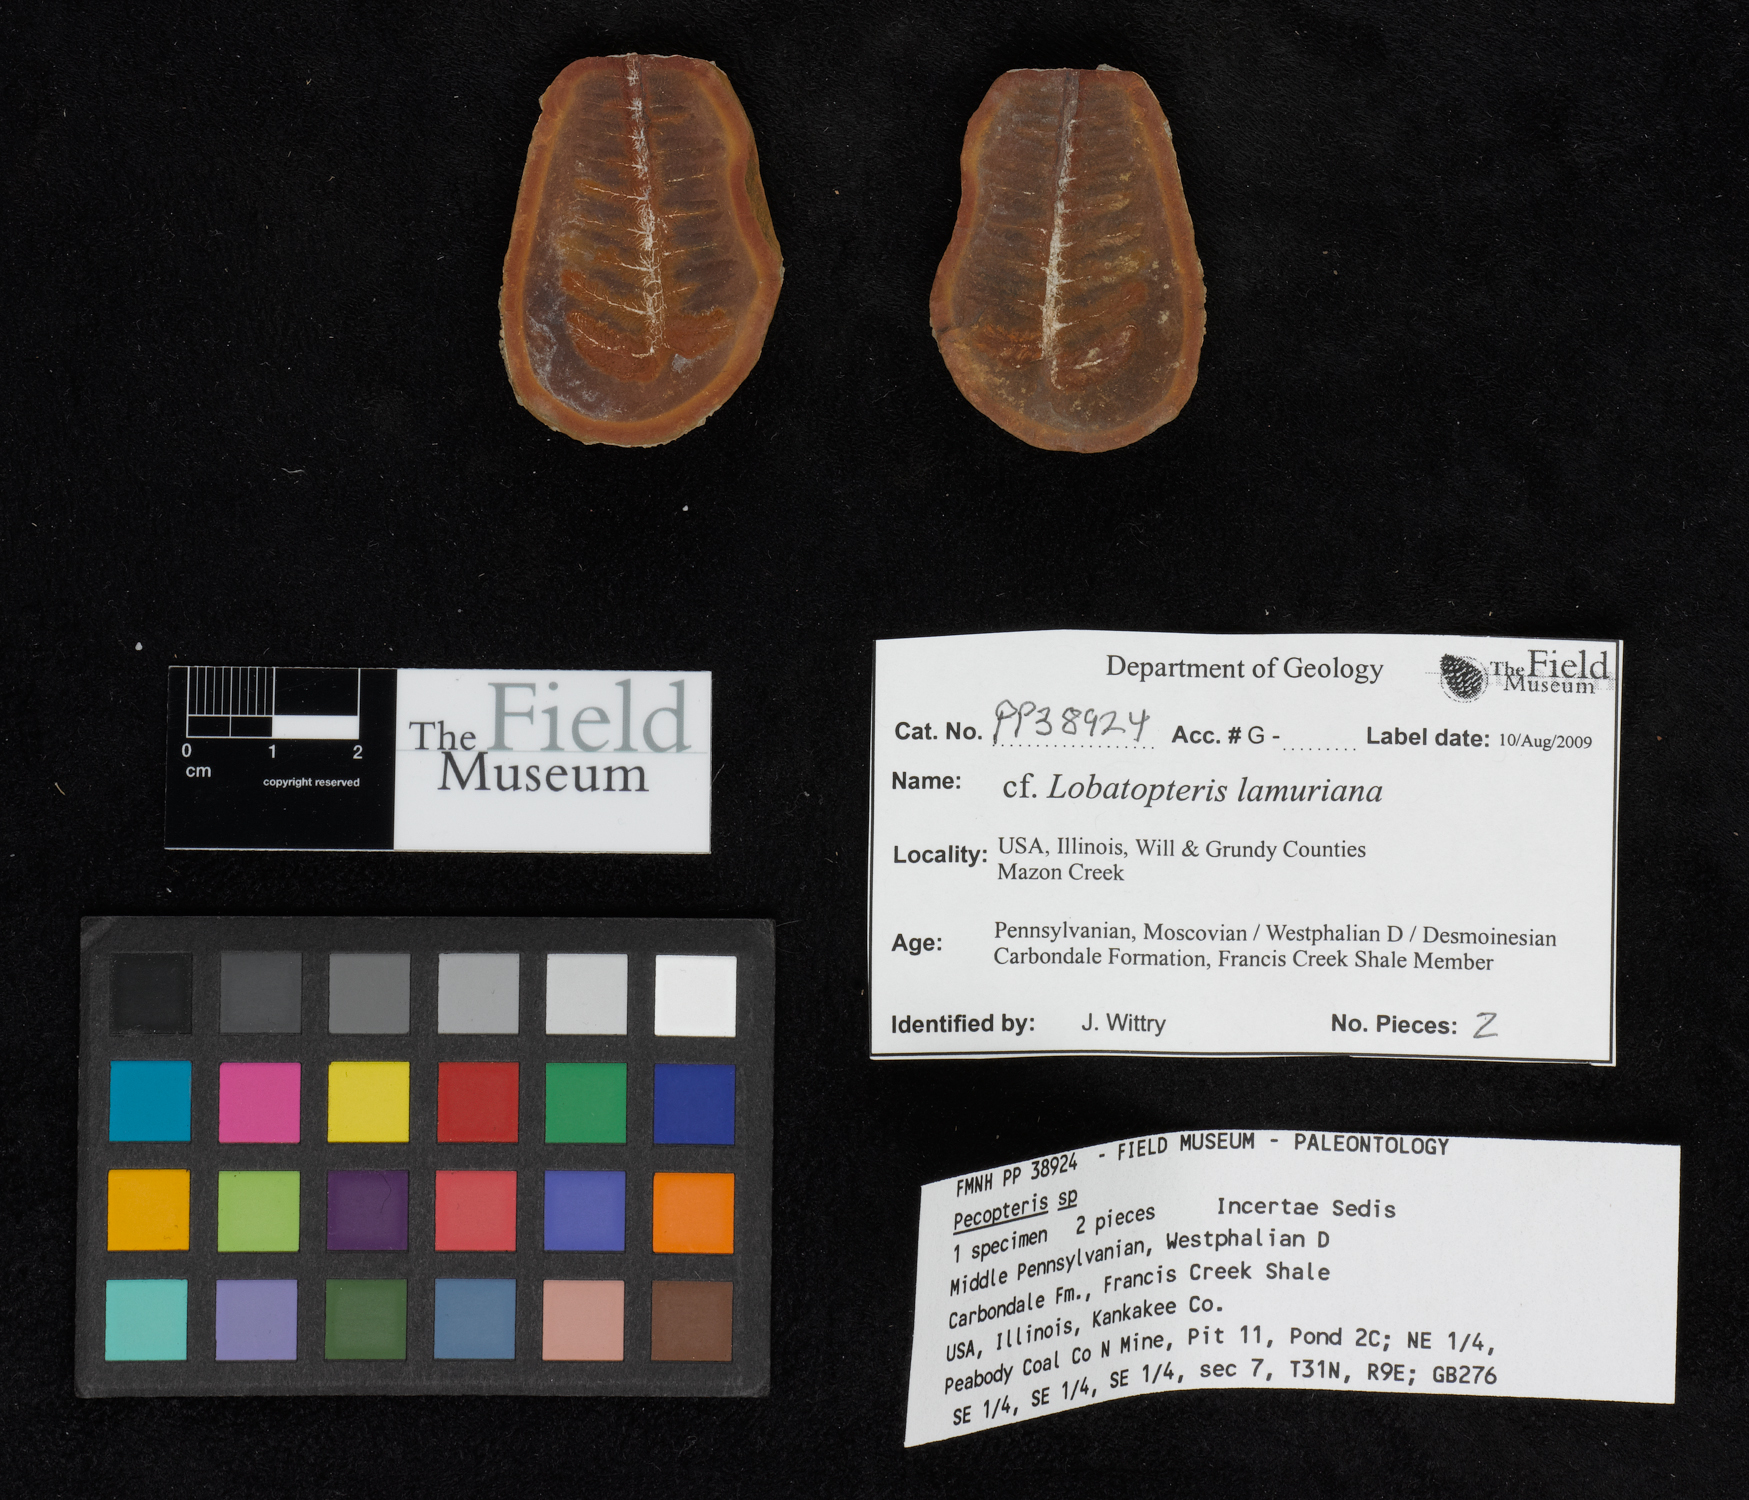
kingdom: Plantae
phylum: Tracheophyta
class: Polypodiopsida
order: Marattiales
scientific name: Marattiales
